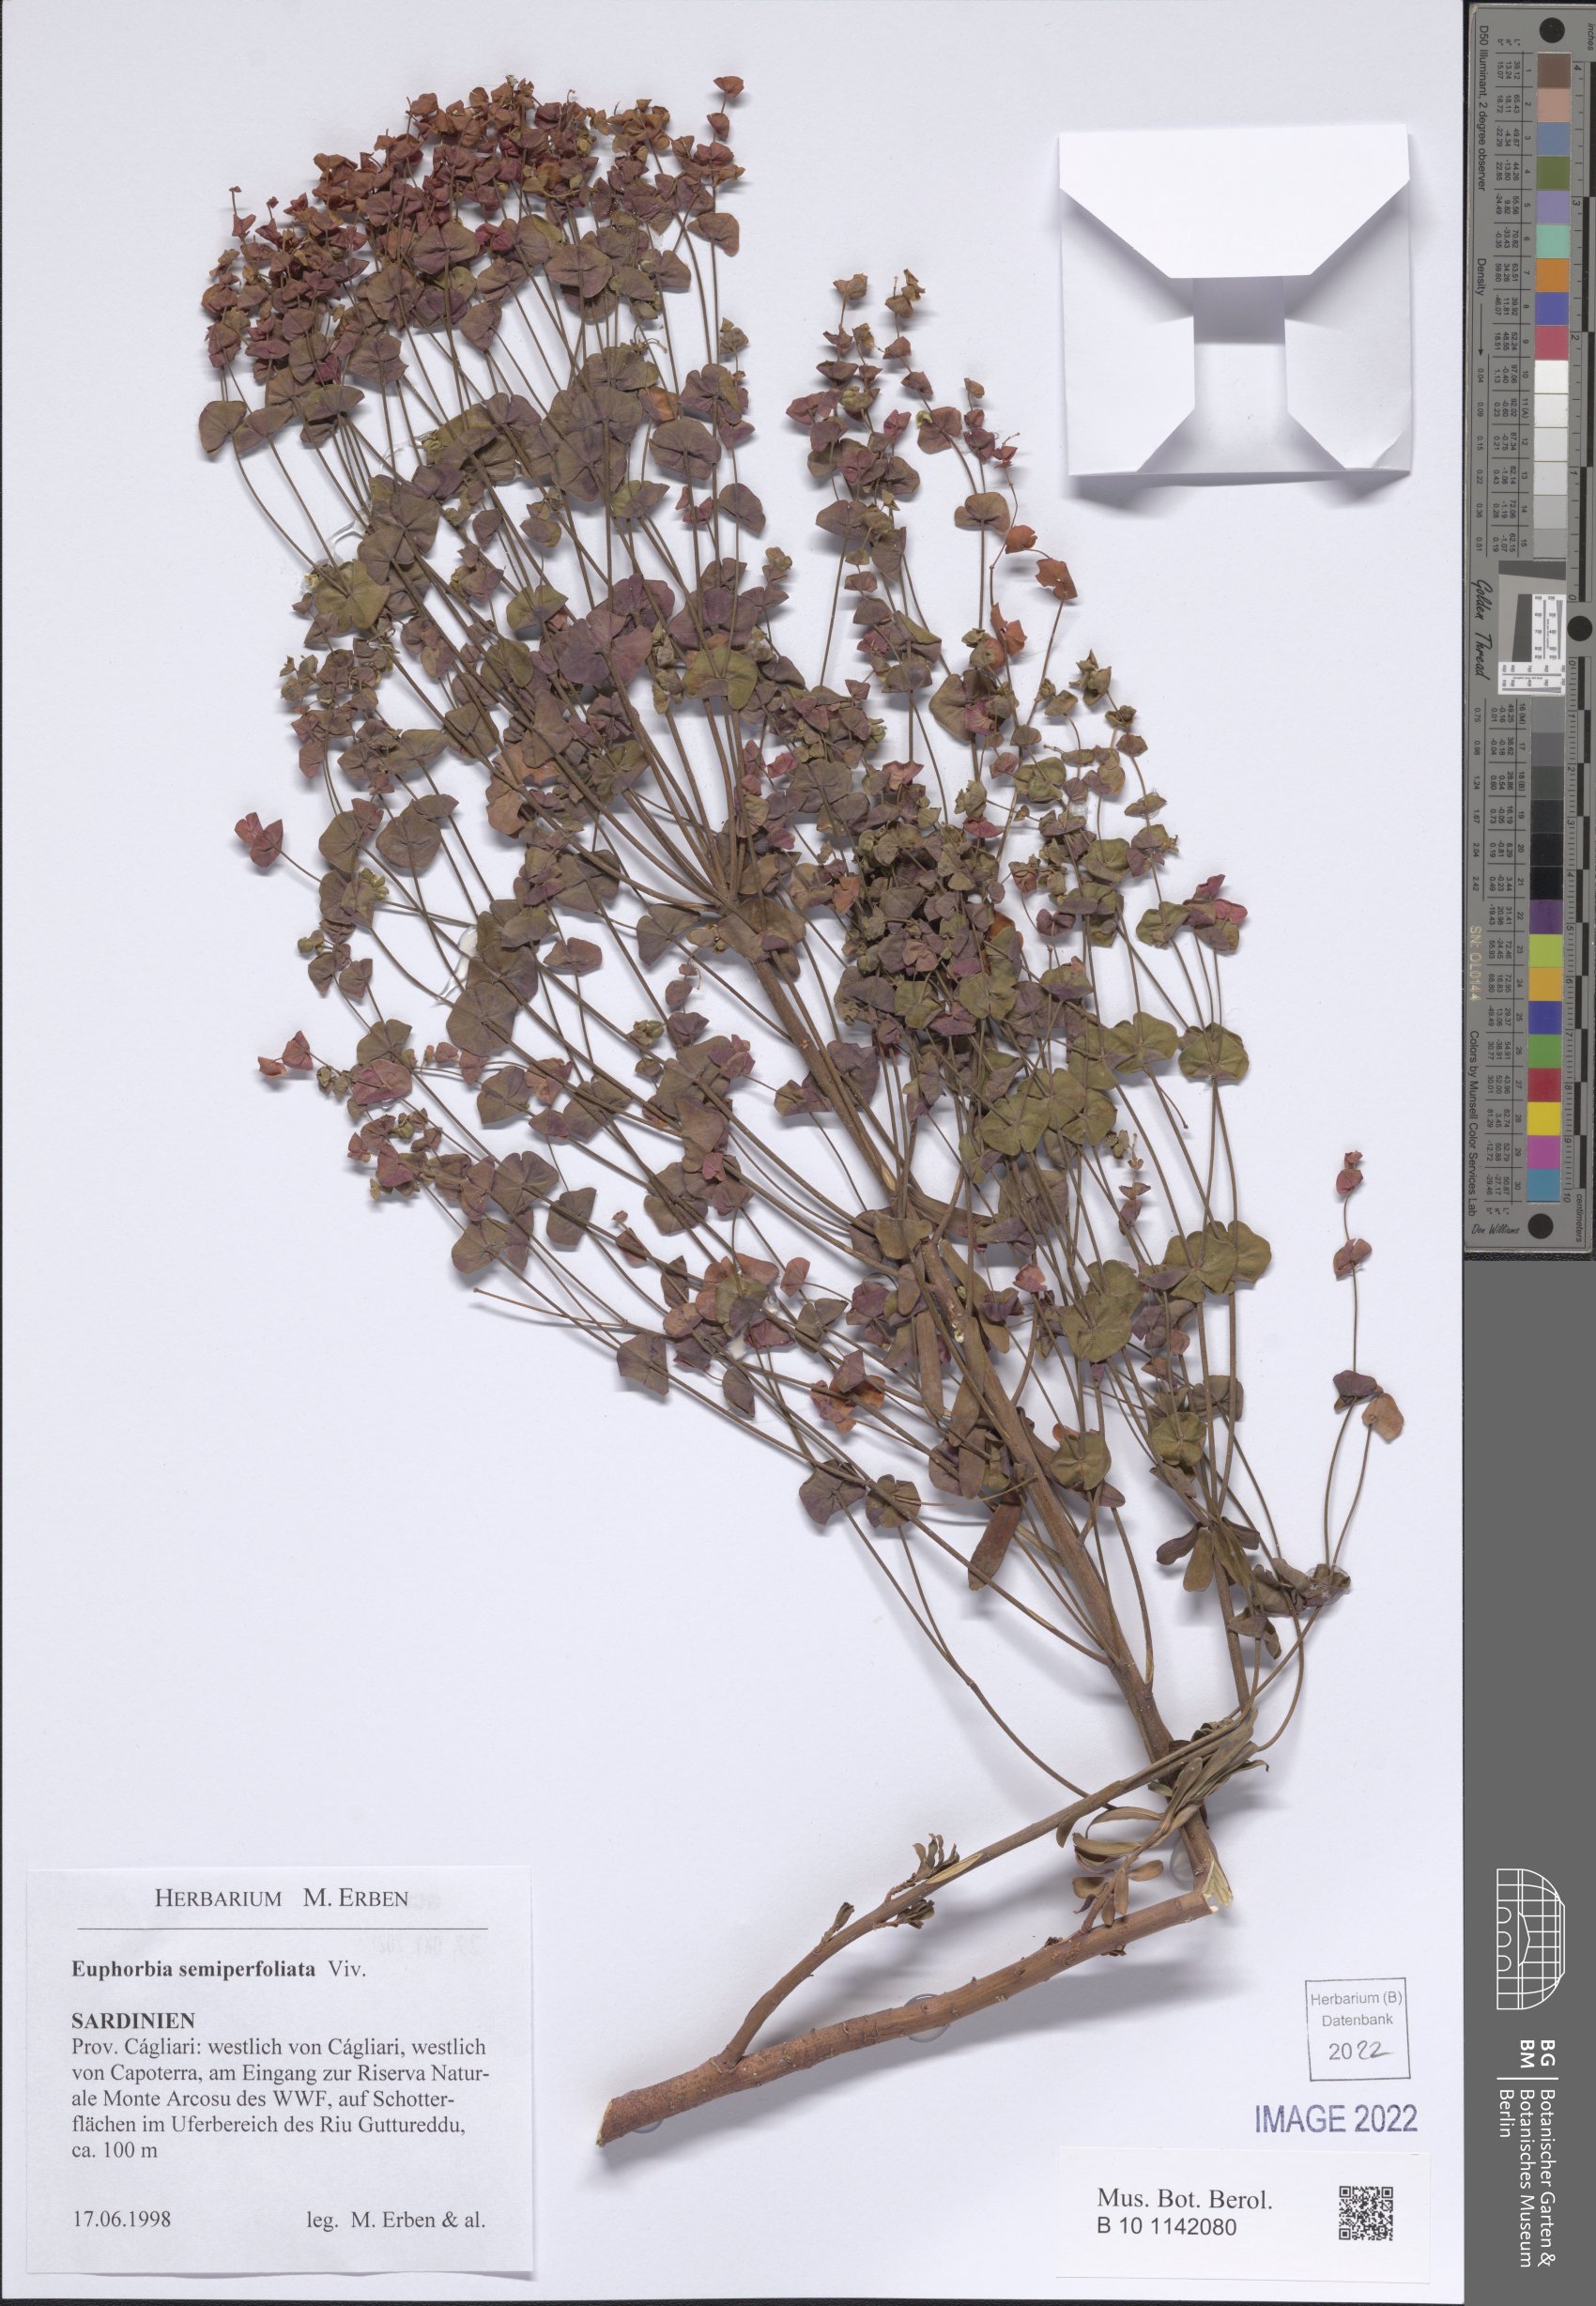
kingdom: Plantae
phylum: Tracheophyta
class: Magnoliopsida
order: Malpighiales
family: Euphorbiaceae
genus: Euphorbia
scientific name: Euphorbia semiperfoliata
